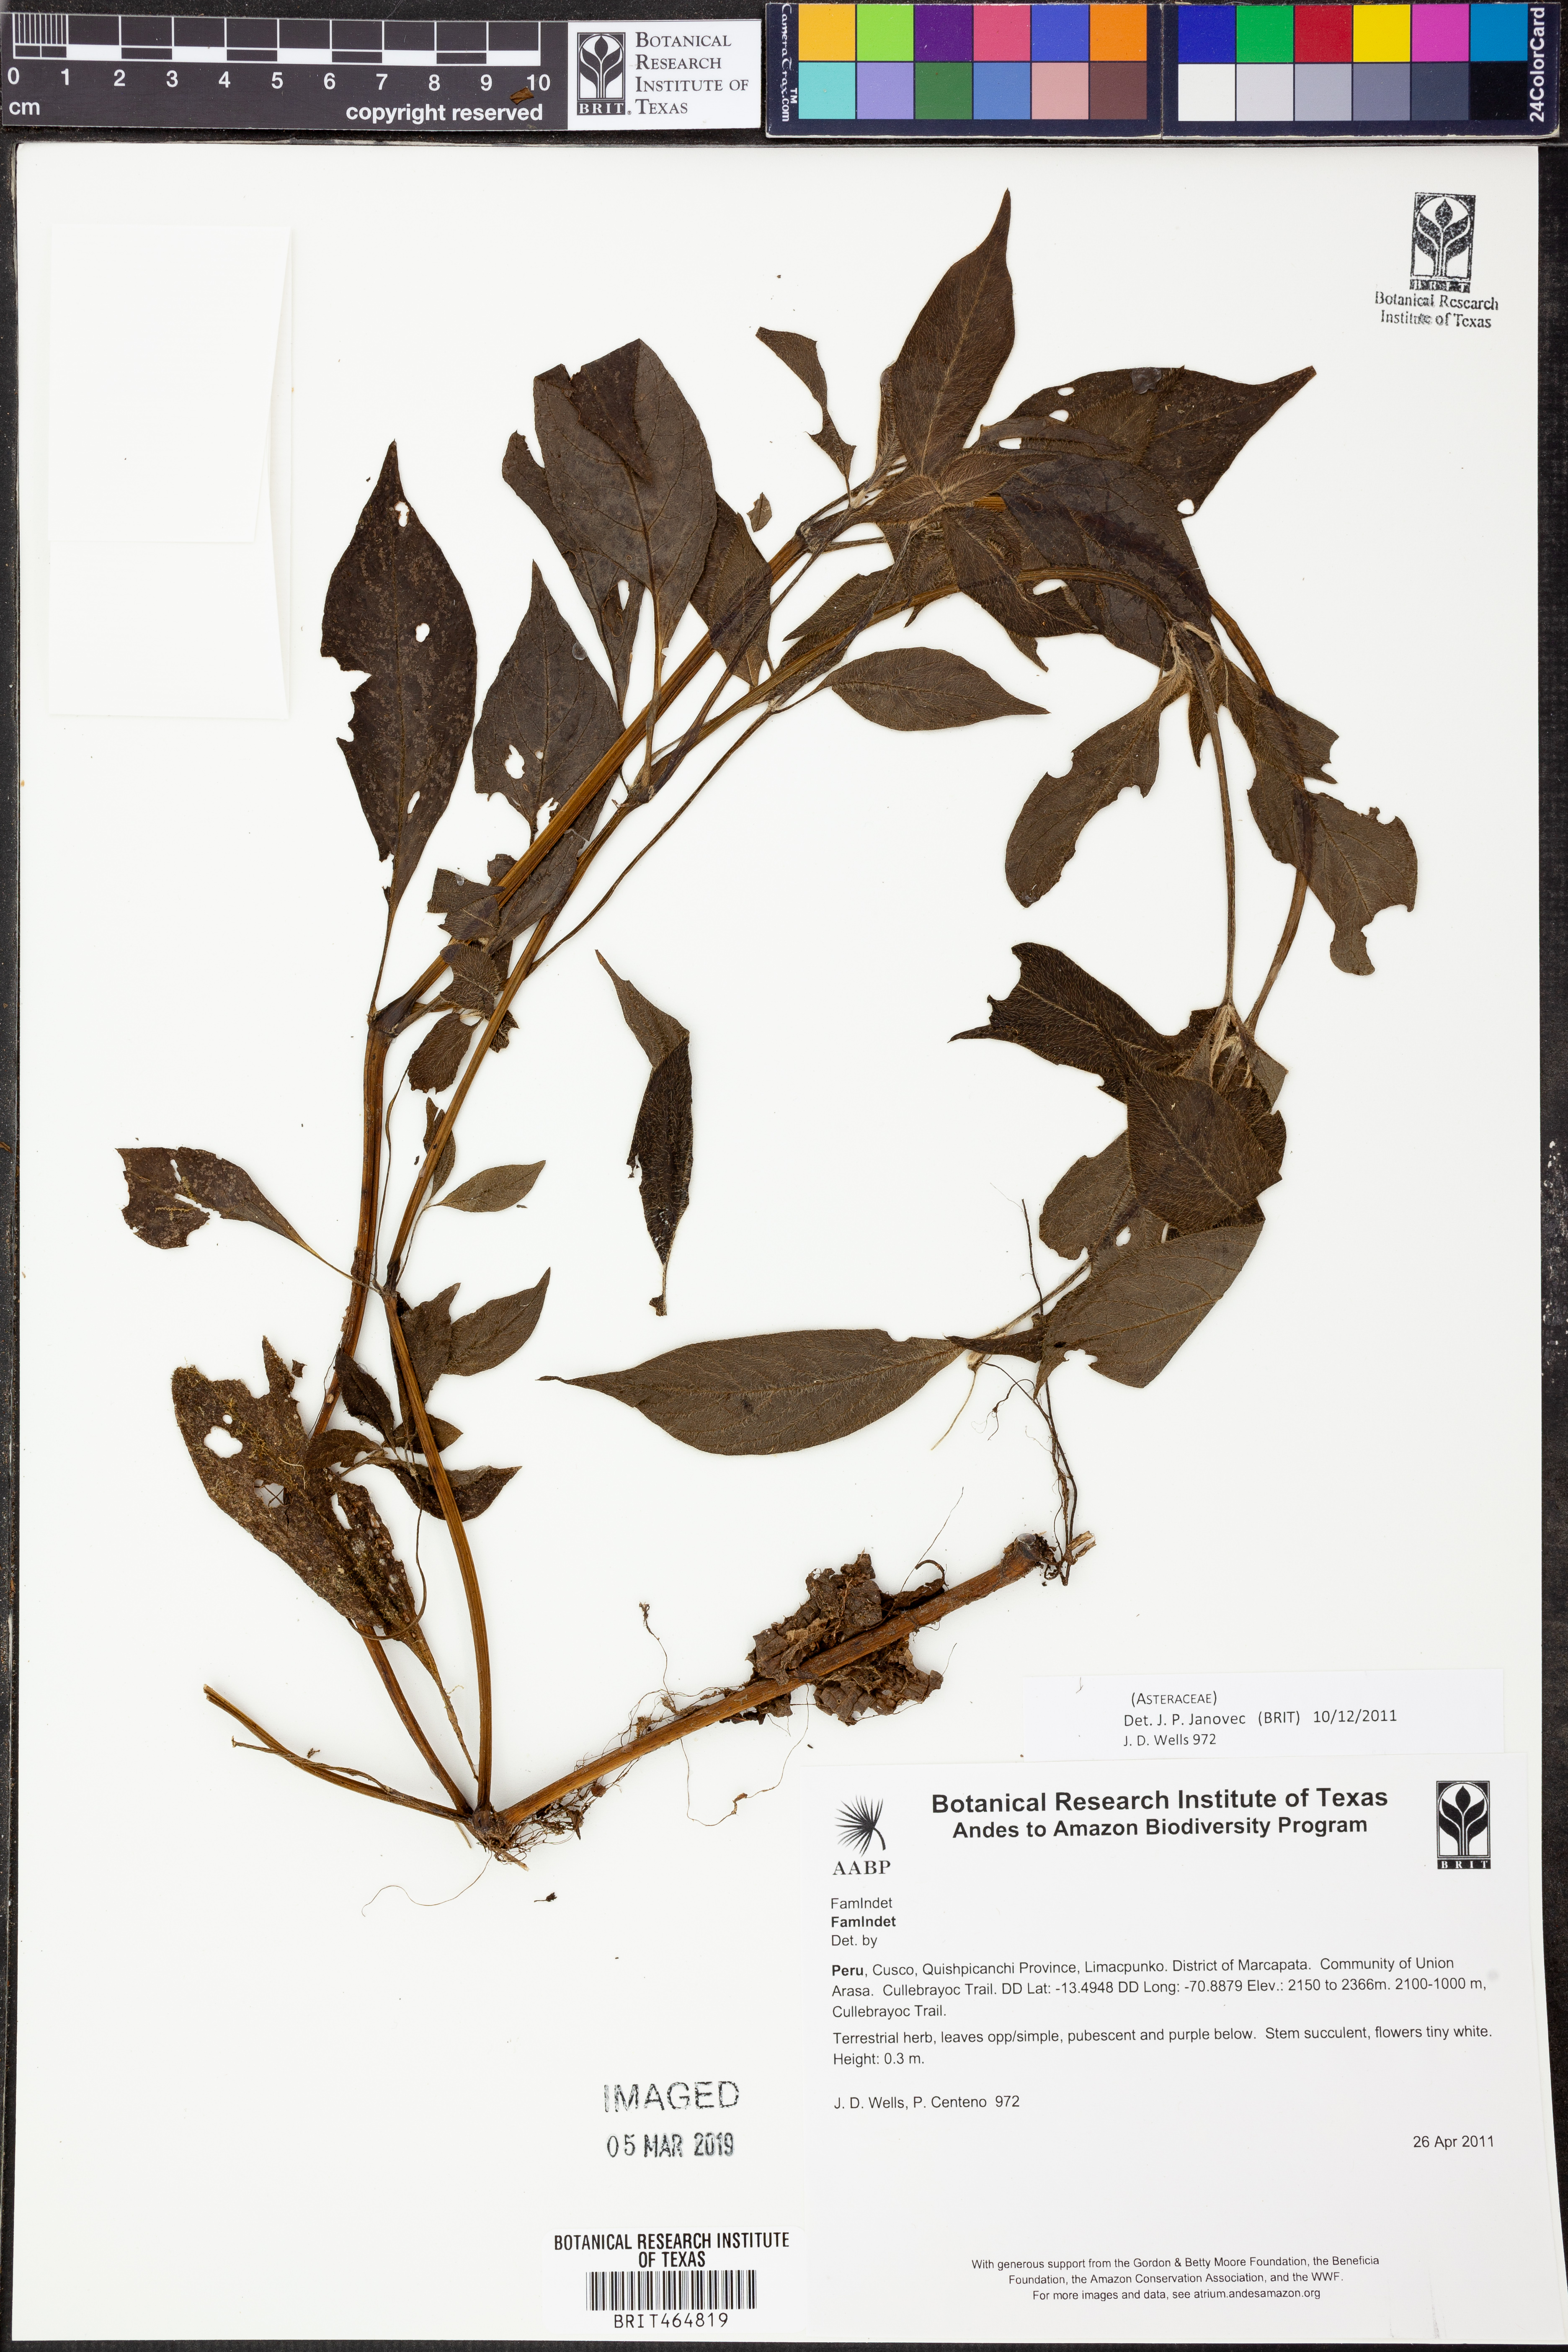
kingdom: Plantae
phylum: Tracheophyta
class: Magnoliopsida
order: Asterales
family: Asteraceae
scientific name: Asteraceae
